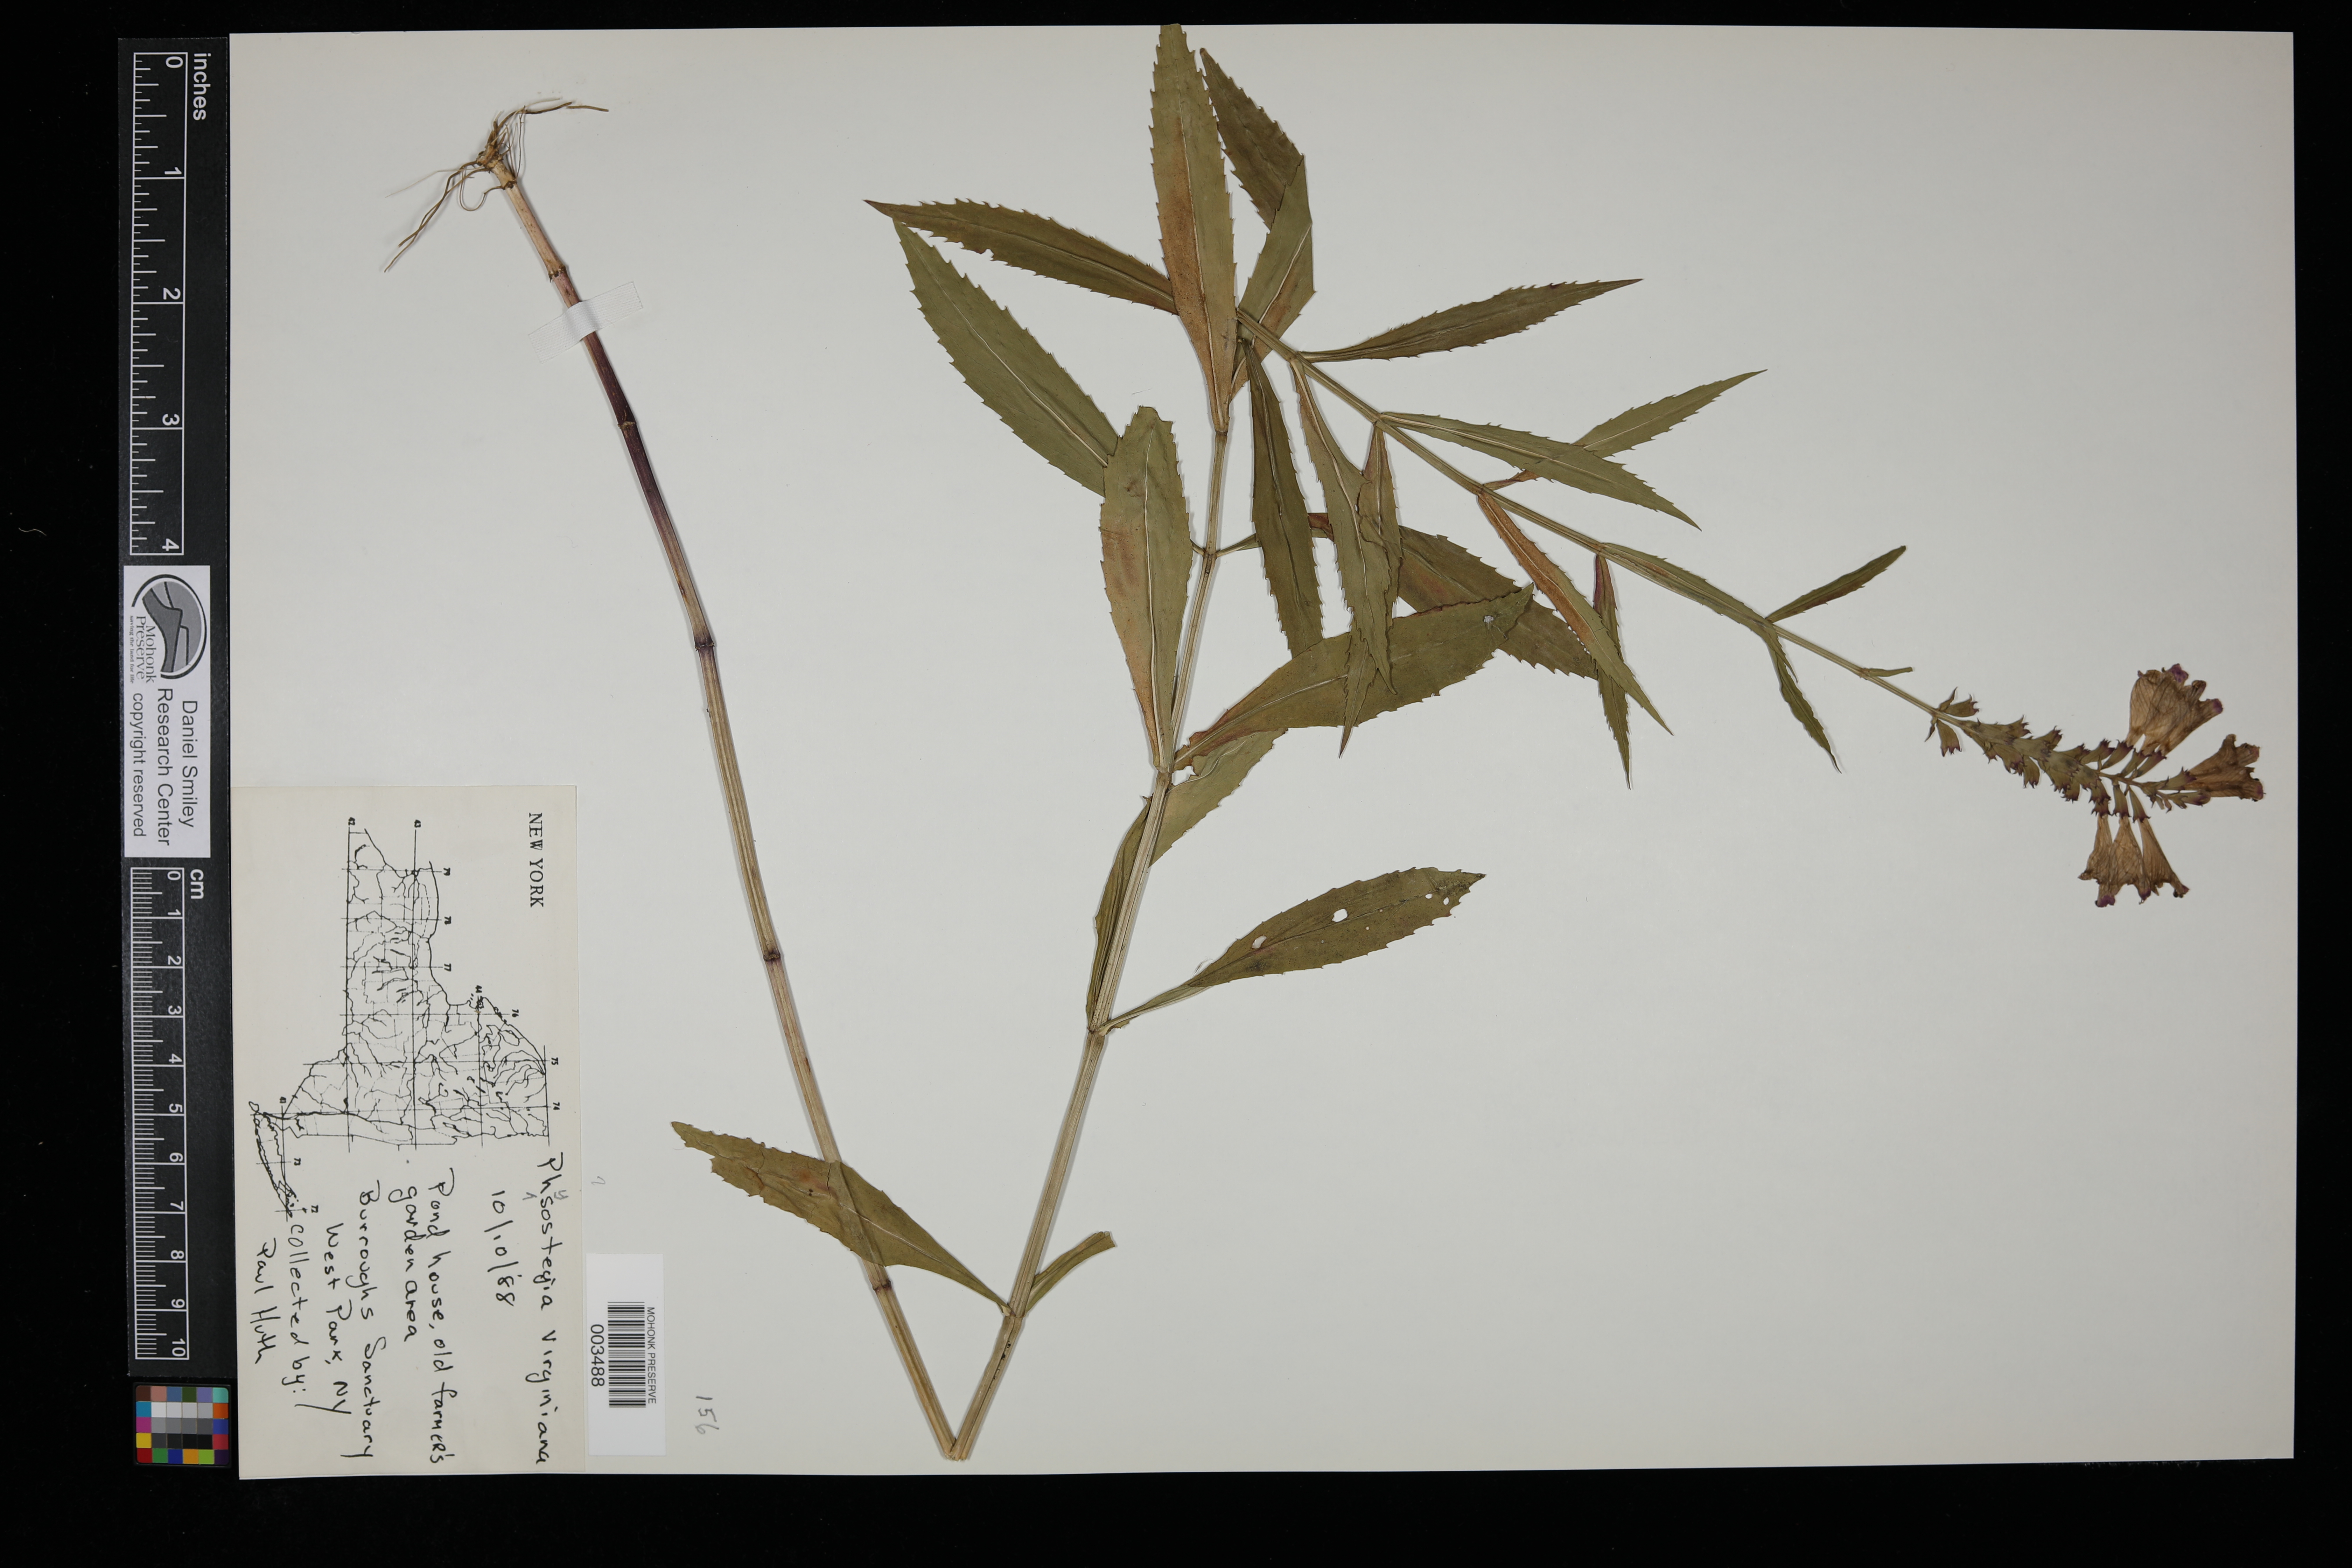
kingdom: Plantae
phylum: Tracheophyta
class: Magnoliopsida
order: Lamiales
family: Lamiaceae
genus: Physostegia
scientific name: Physostegia virginiana
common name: Obedient-plant
